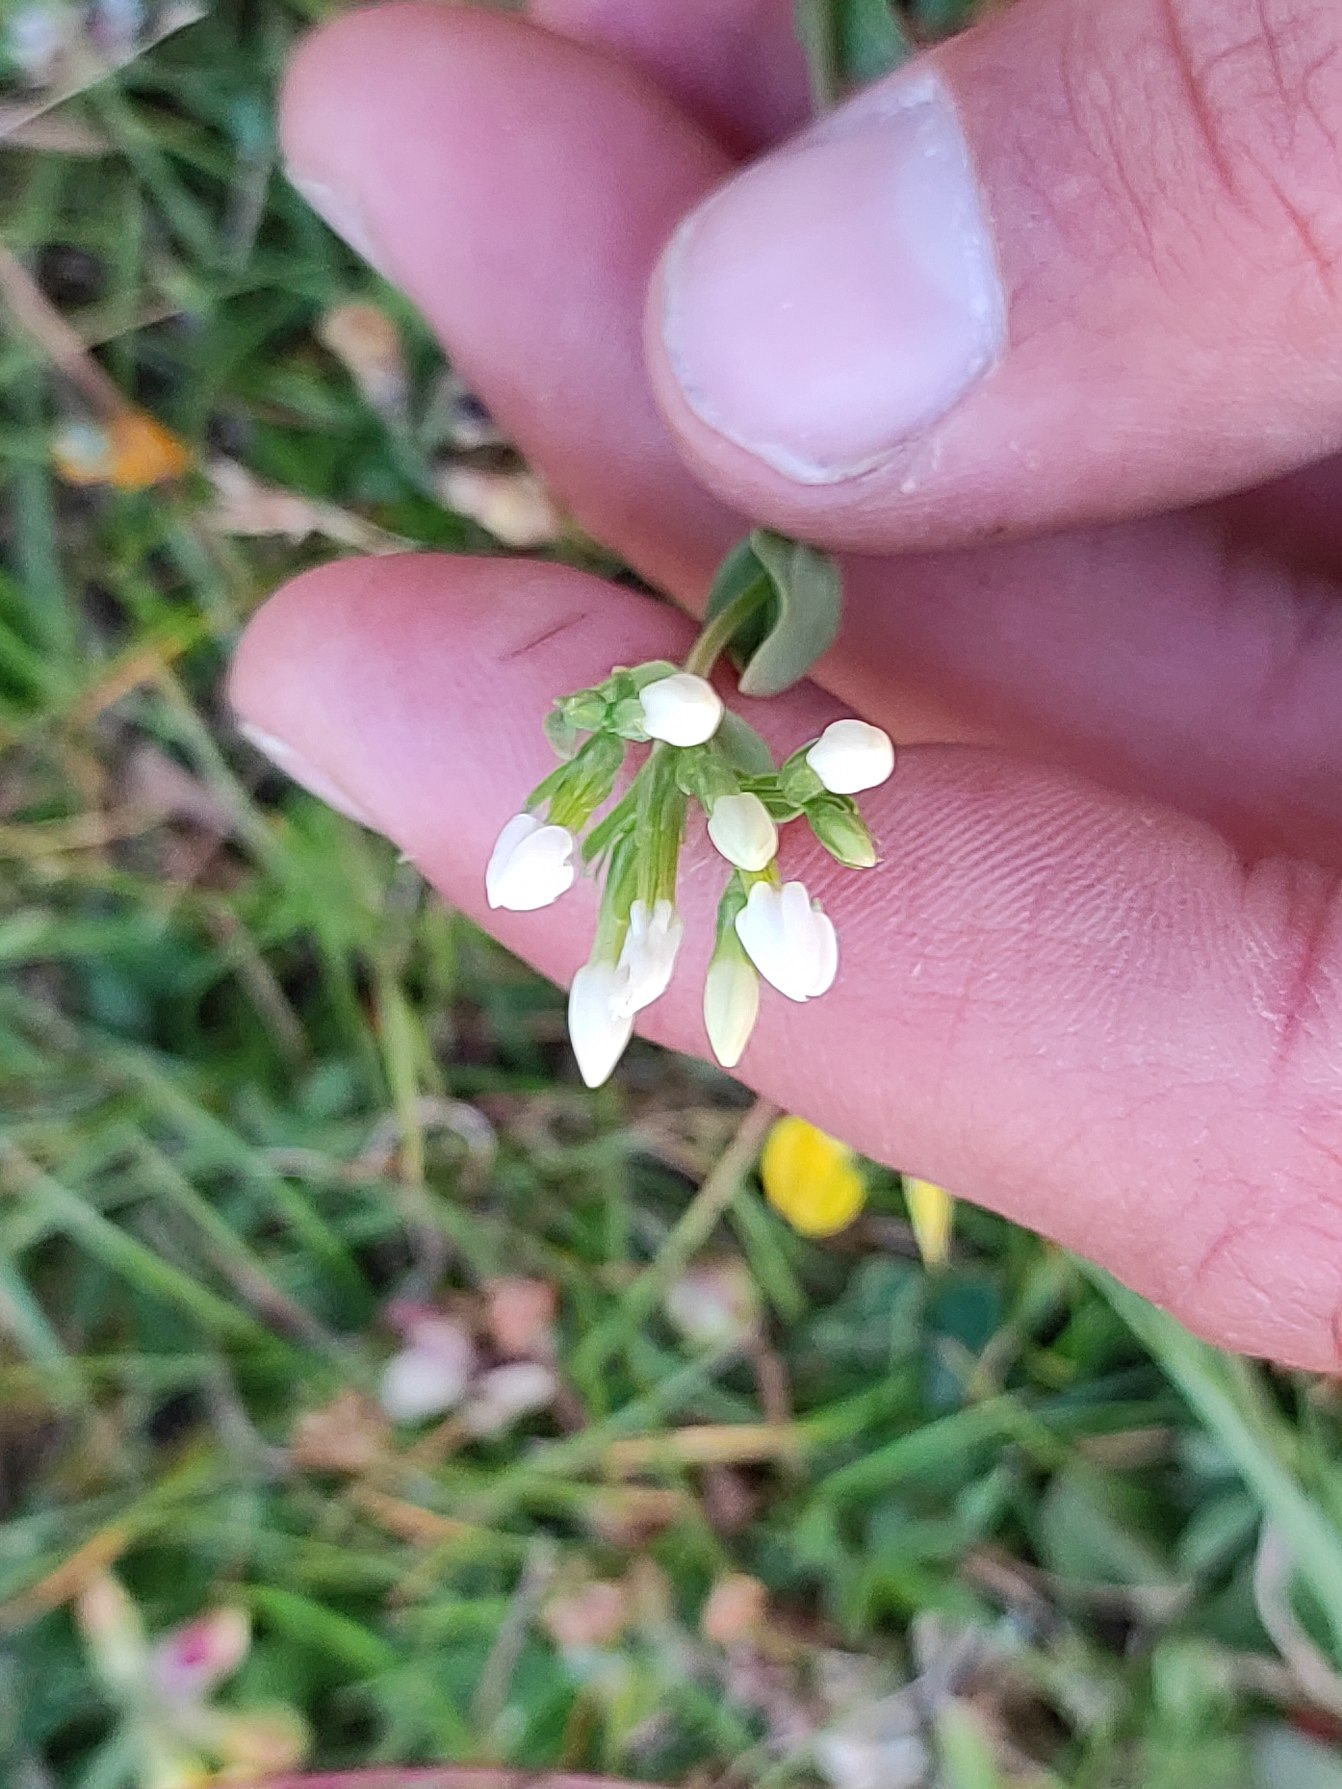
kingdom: Plantae
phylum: Tracheophyta
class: Magnoliopsida
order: Gentianales
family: Gentianaceae
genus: Centaurium
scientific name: Centaurium erythraea
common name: Mark-tusindgylden
